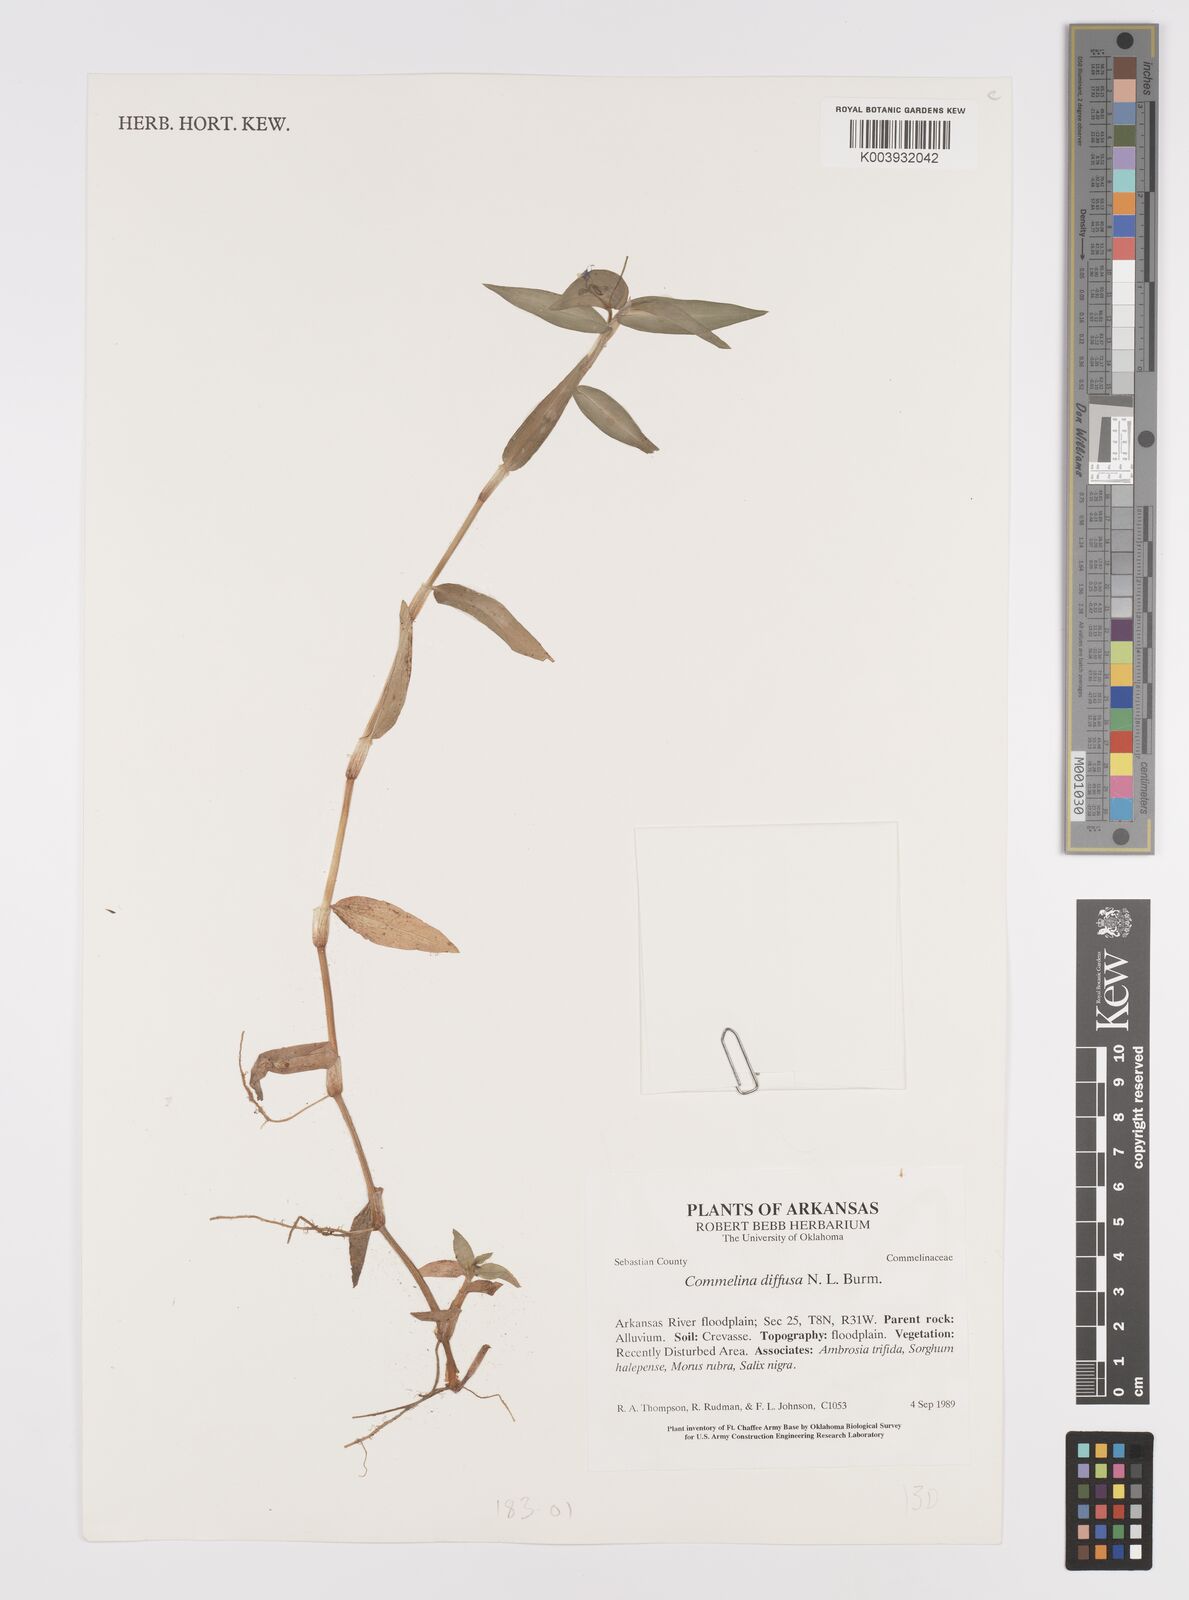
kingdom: Plantae
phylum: Tracheophyta
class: Liliopsida
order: Commelinales
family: Commelinaceae
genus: Commelina
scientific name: Commelina diffusa
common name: Climbing dayflower
